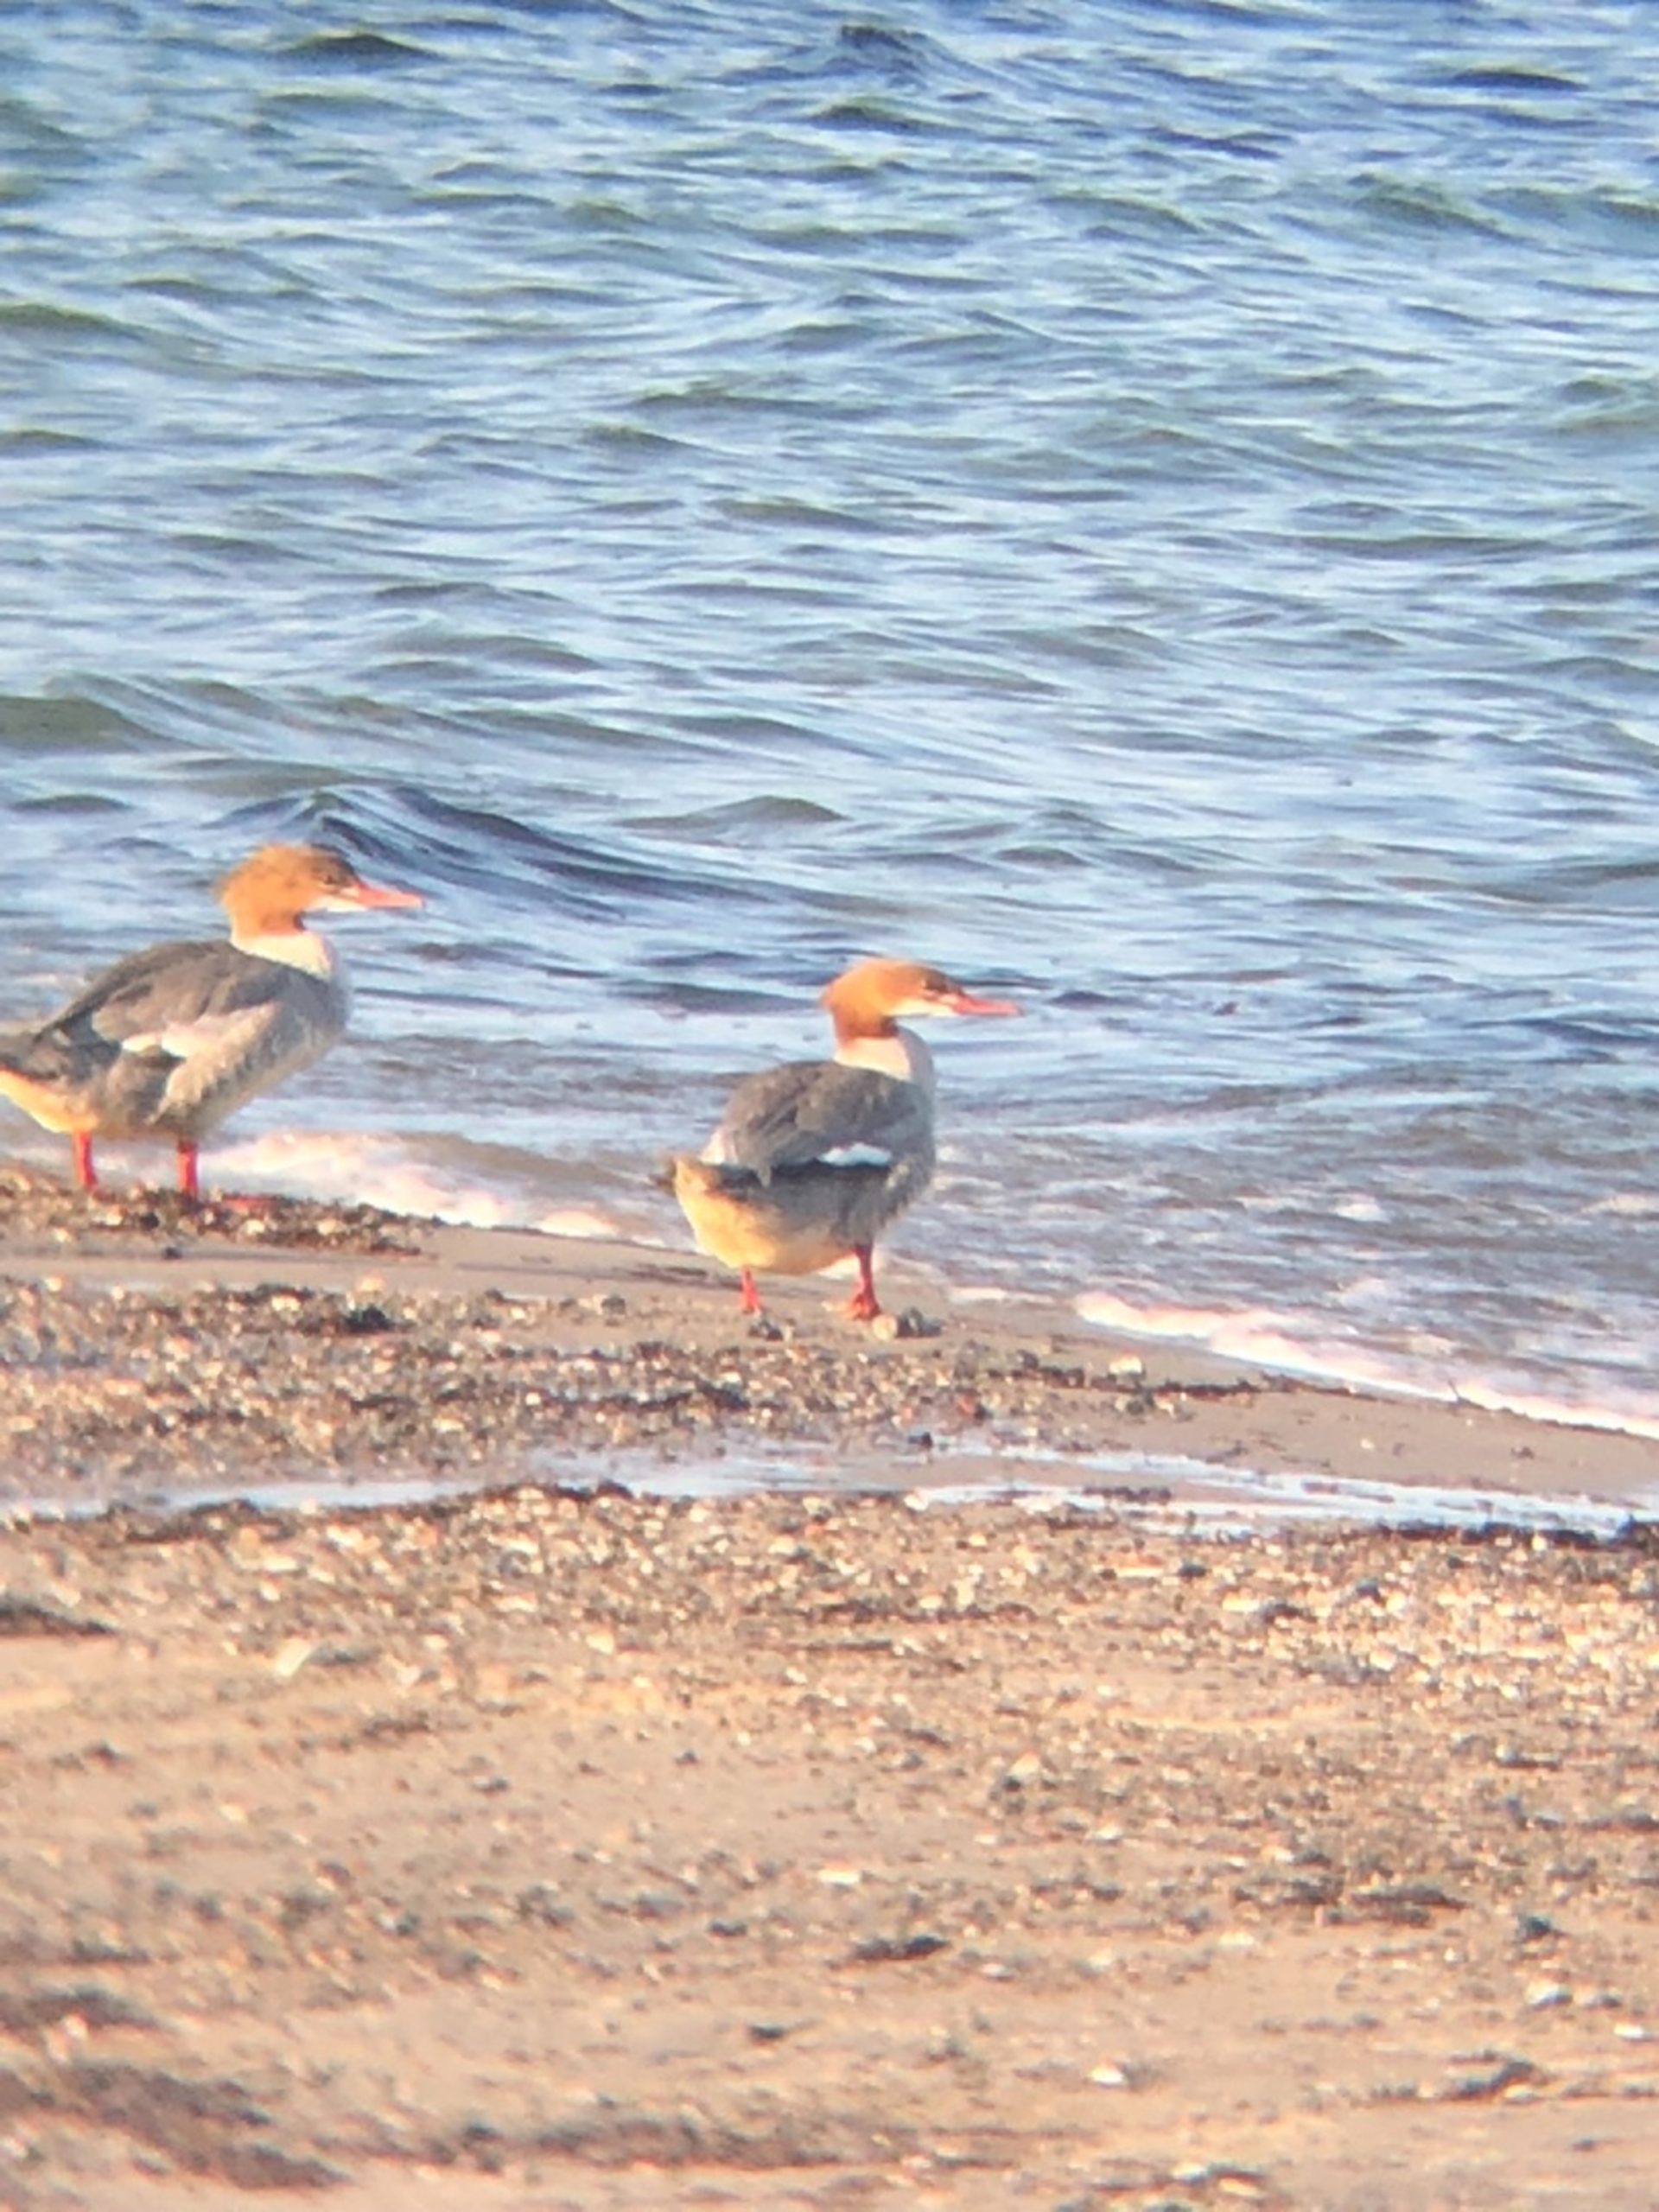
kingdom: Animalia
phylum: Chordata
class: Aves
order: Anseriformes
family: Anatidae
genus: Mergus
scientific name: Mergus merganser
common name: Stor skallesluger
